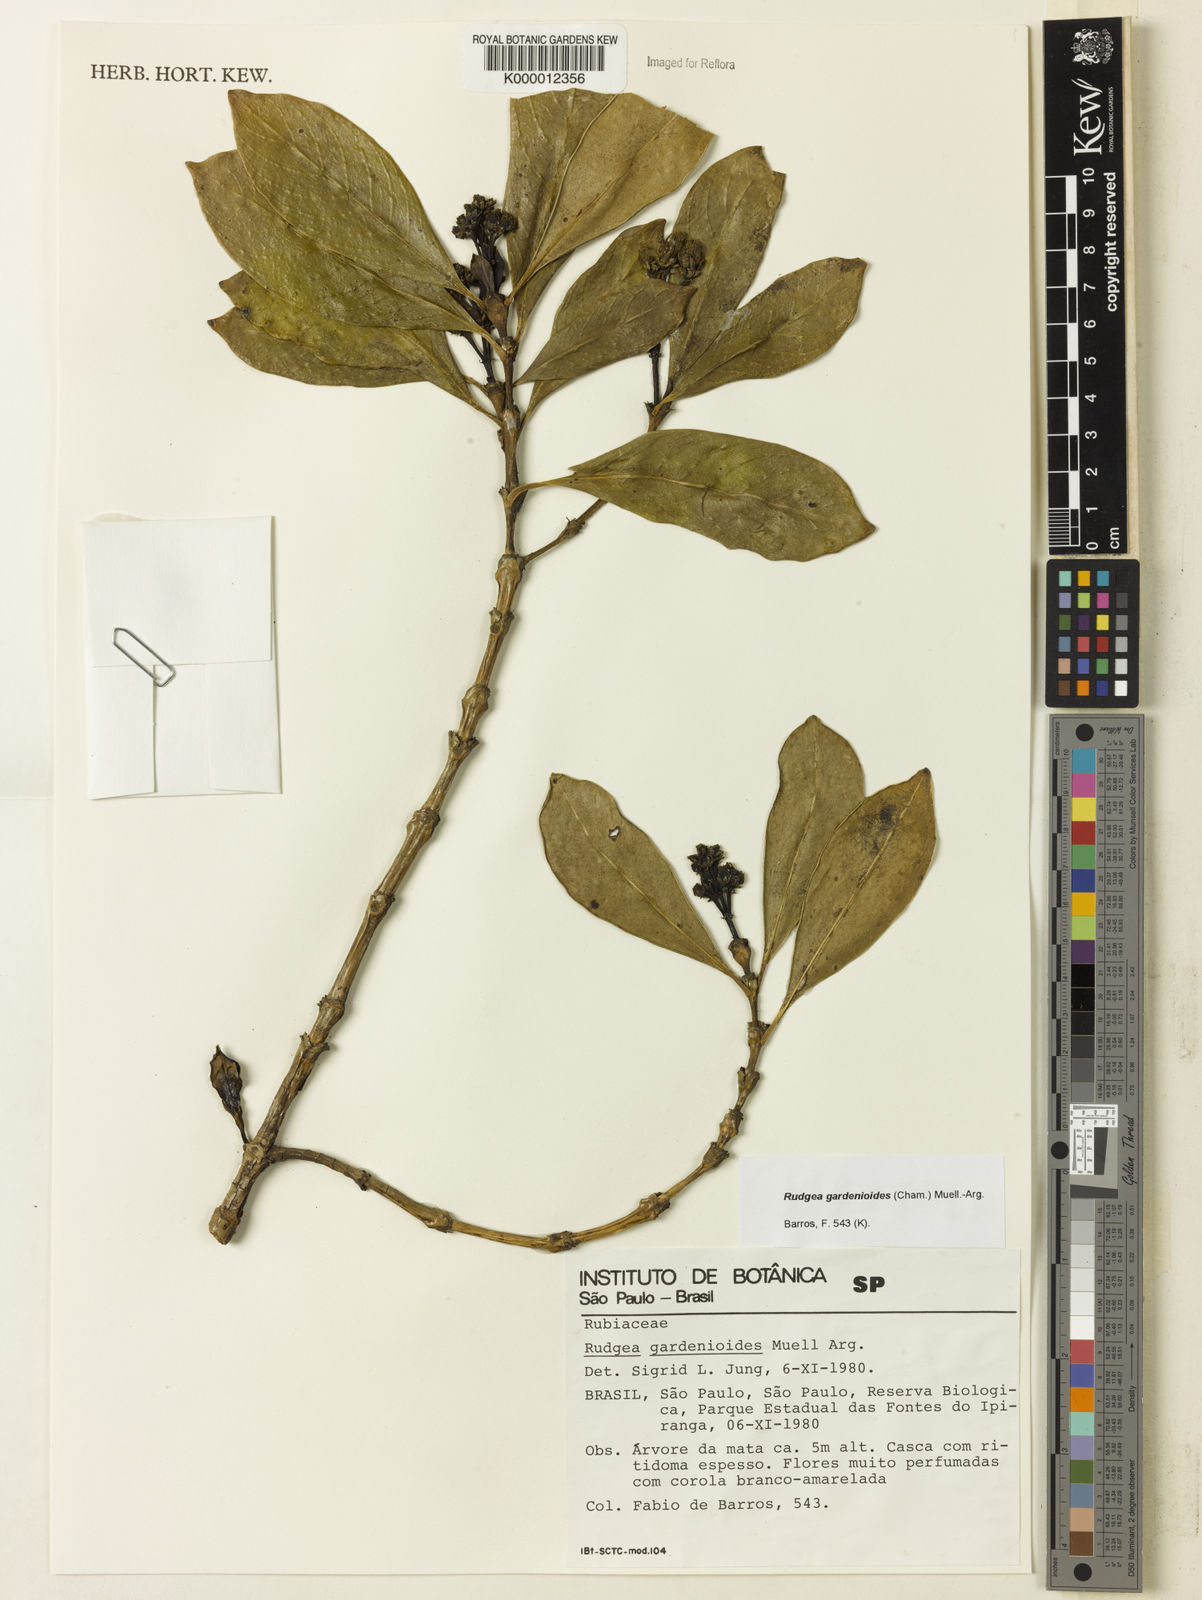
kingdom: Plantae
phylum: Tracheophyta
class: Magnoliopsida
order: Gentianales
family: Rubiaceae
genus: Rudgea
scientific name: Rudgea gardenioides
